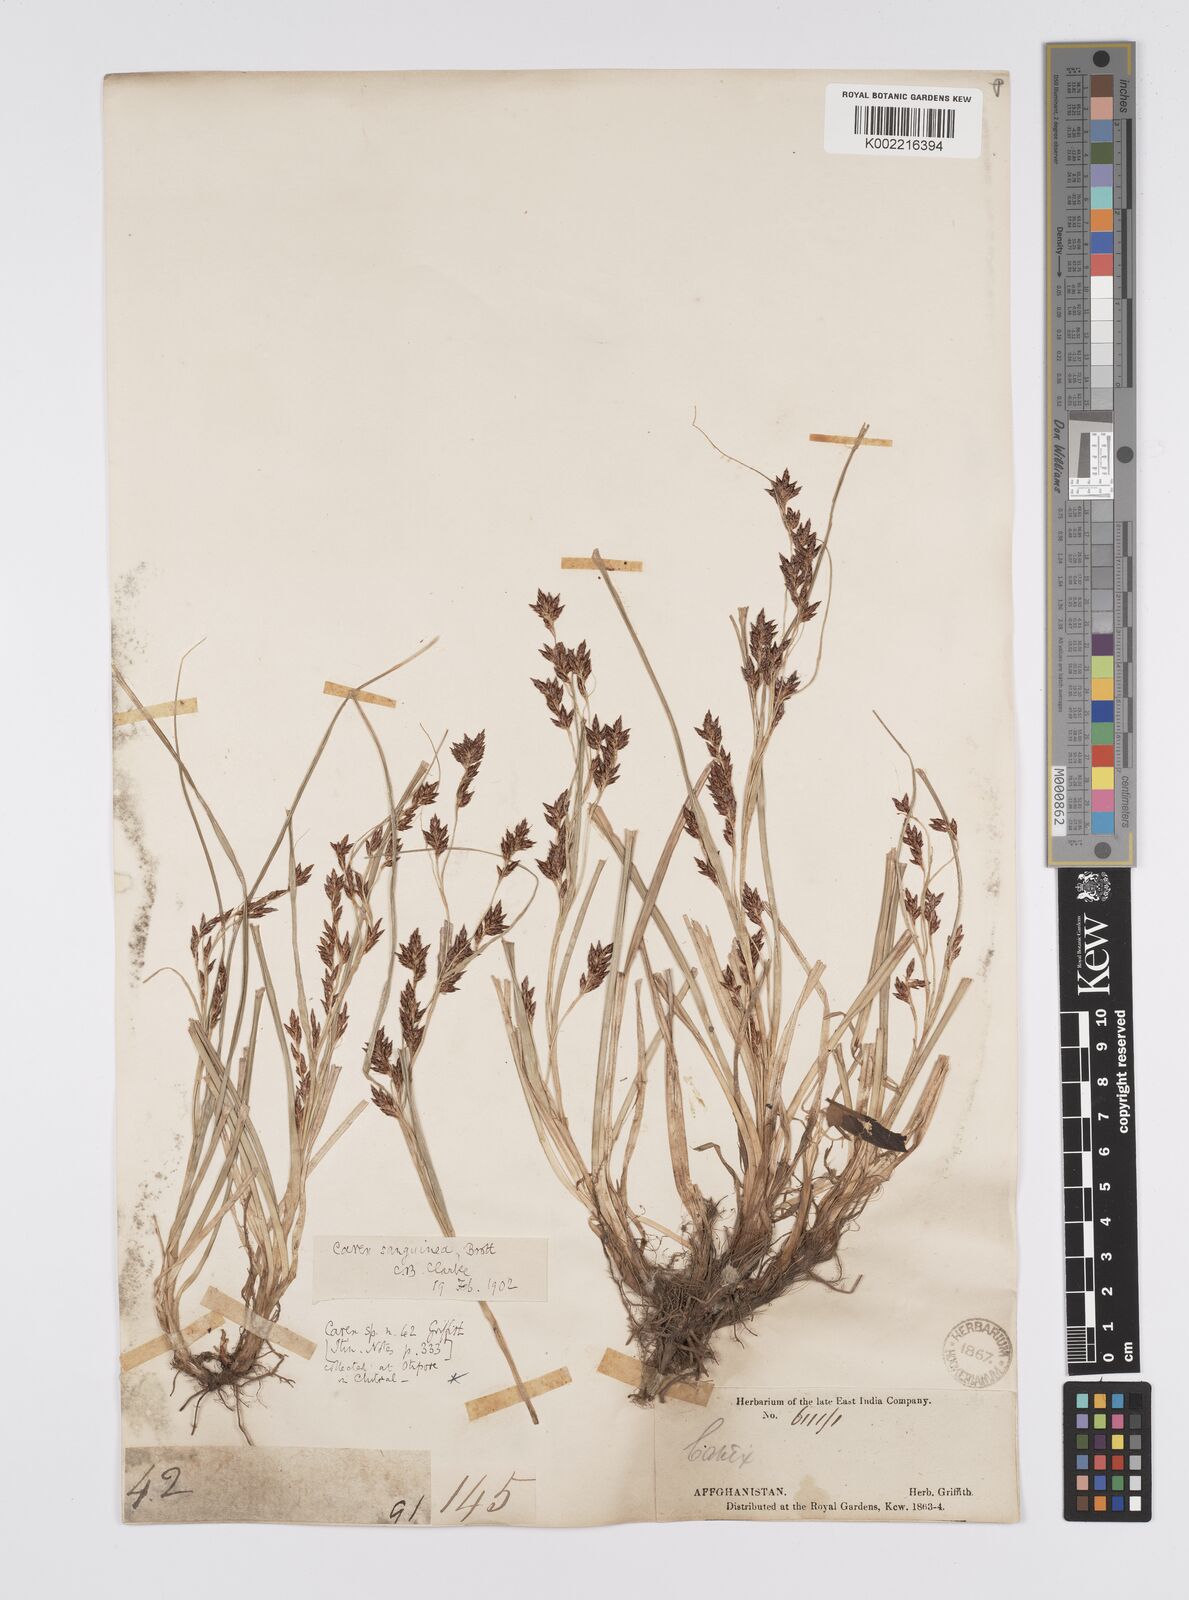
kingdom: Plantae
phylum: Tracheophyta
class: Liliopsida
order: Poales
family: Cyperaceae
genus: Carex
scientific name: Carex sanguinea
